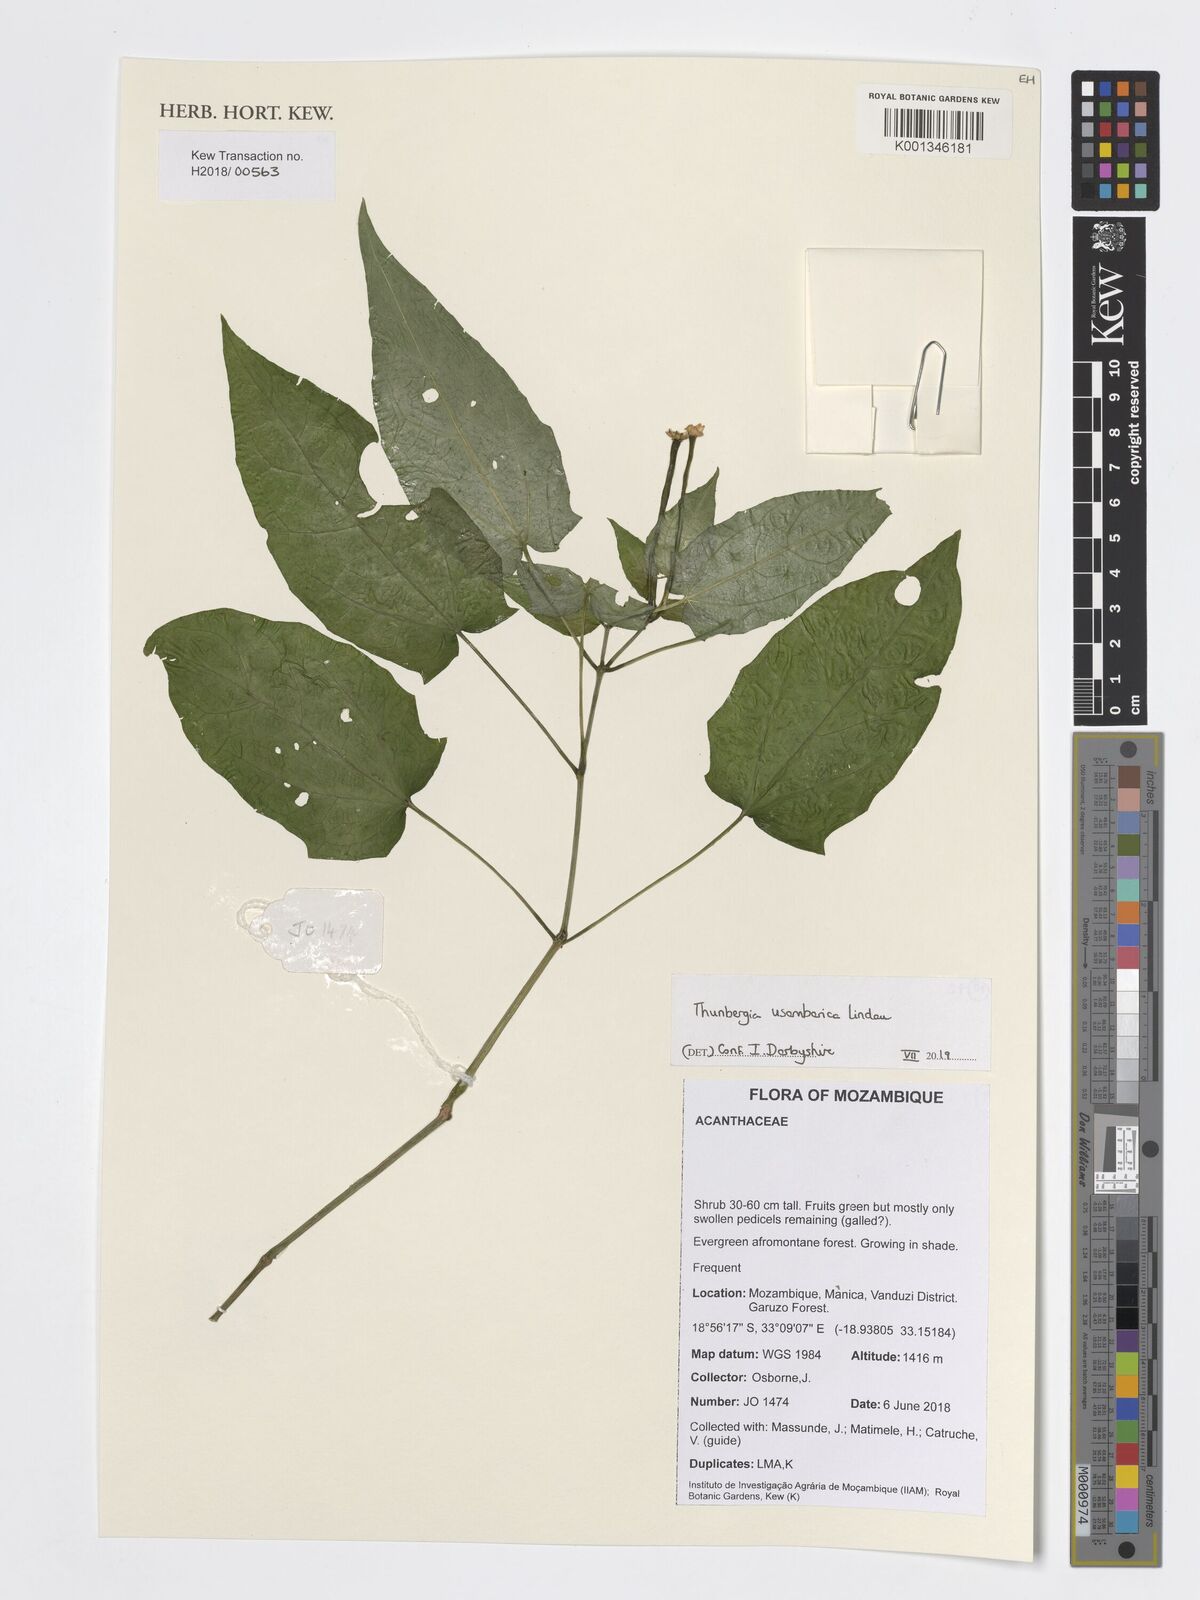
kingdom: Plantae
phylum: Tracheophyta
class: Magnoliopsida
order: Lamiales
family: Acanthaceae
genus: Thunbergia
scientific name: Thunbergia usambarica
